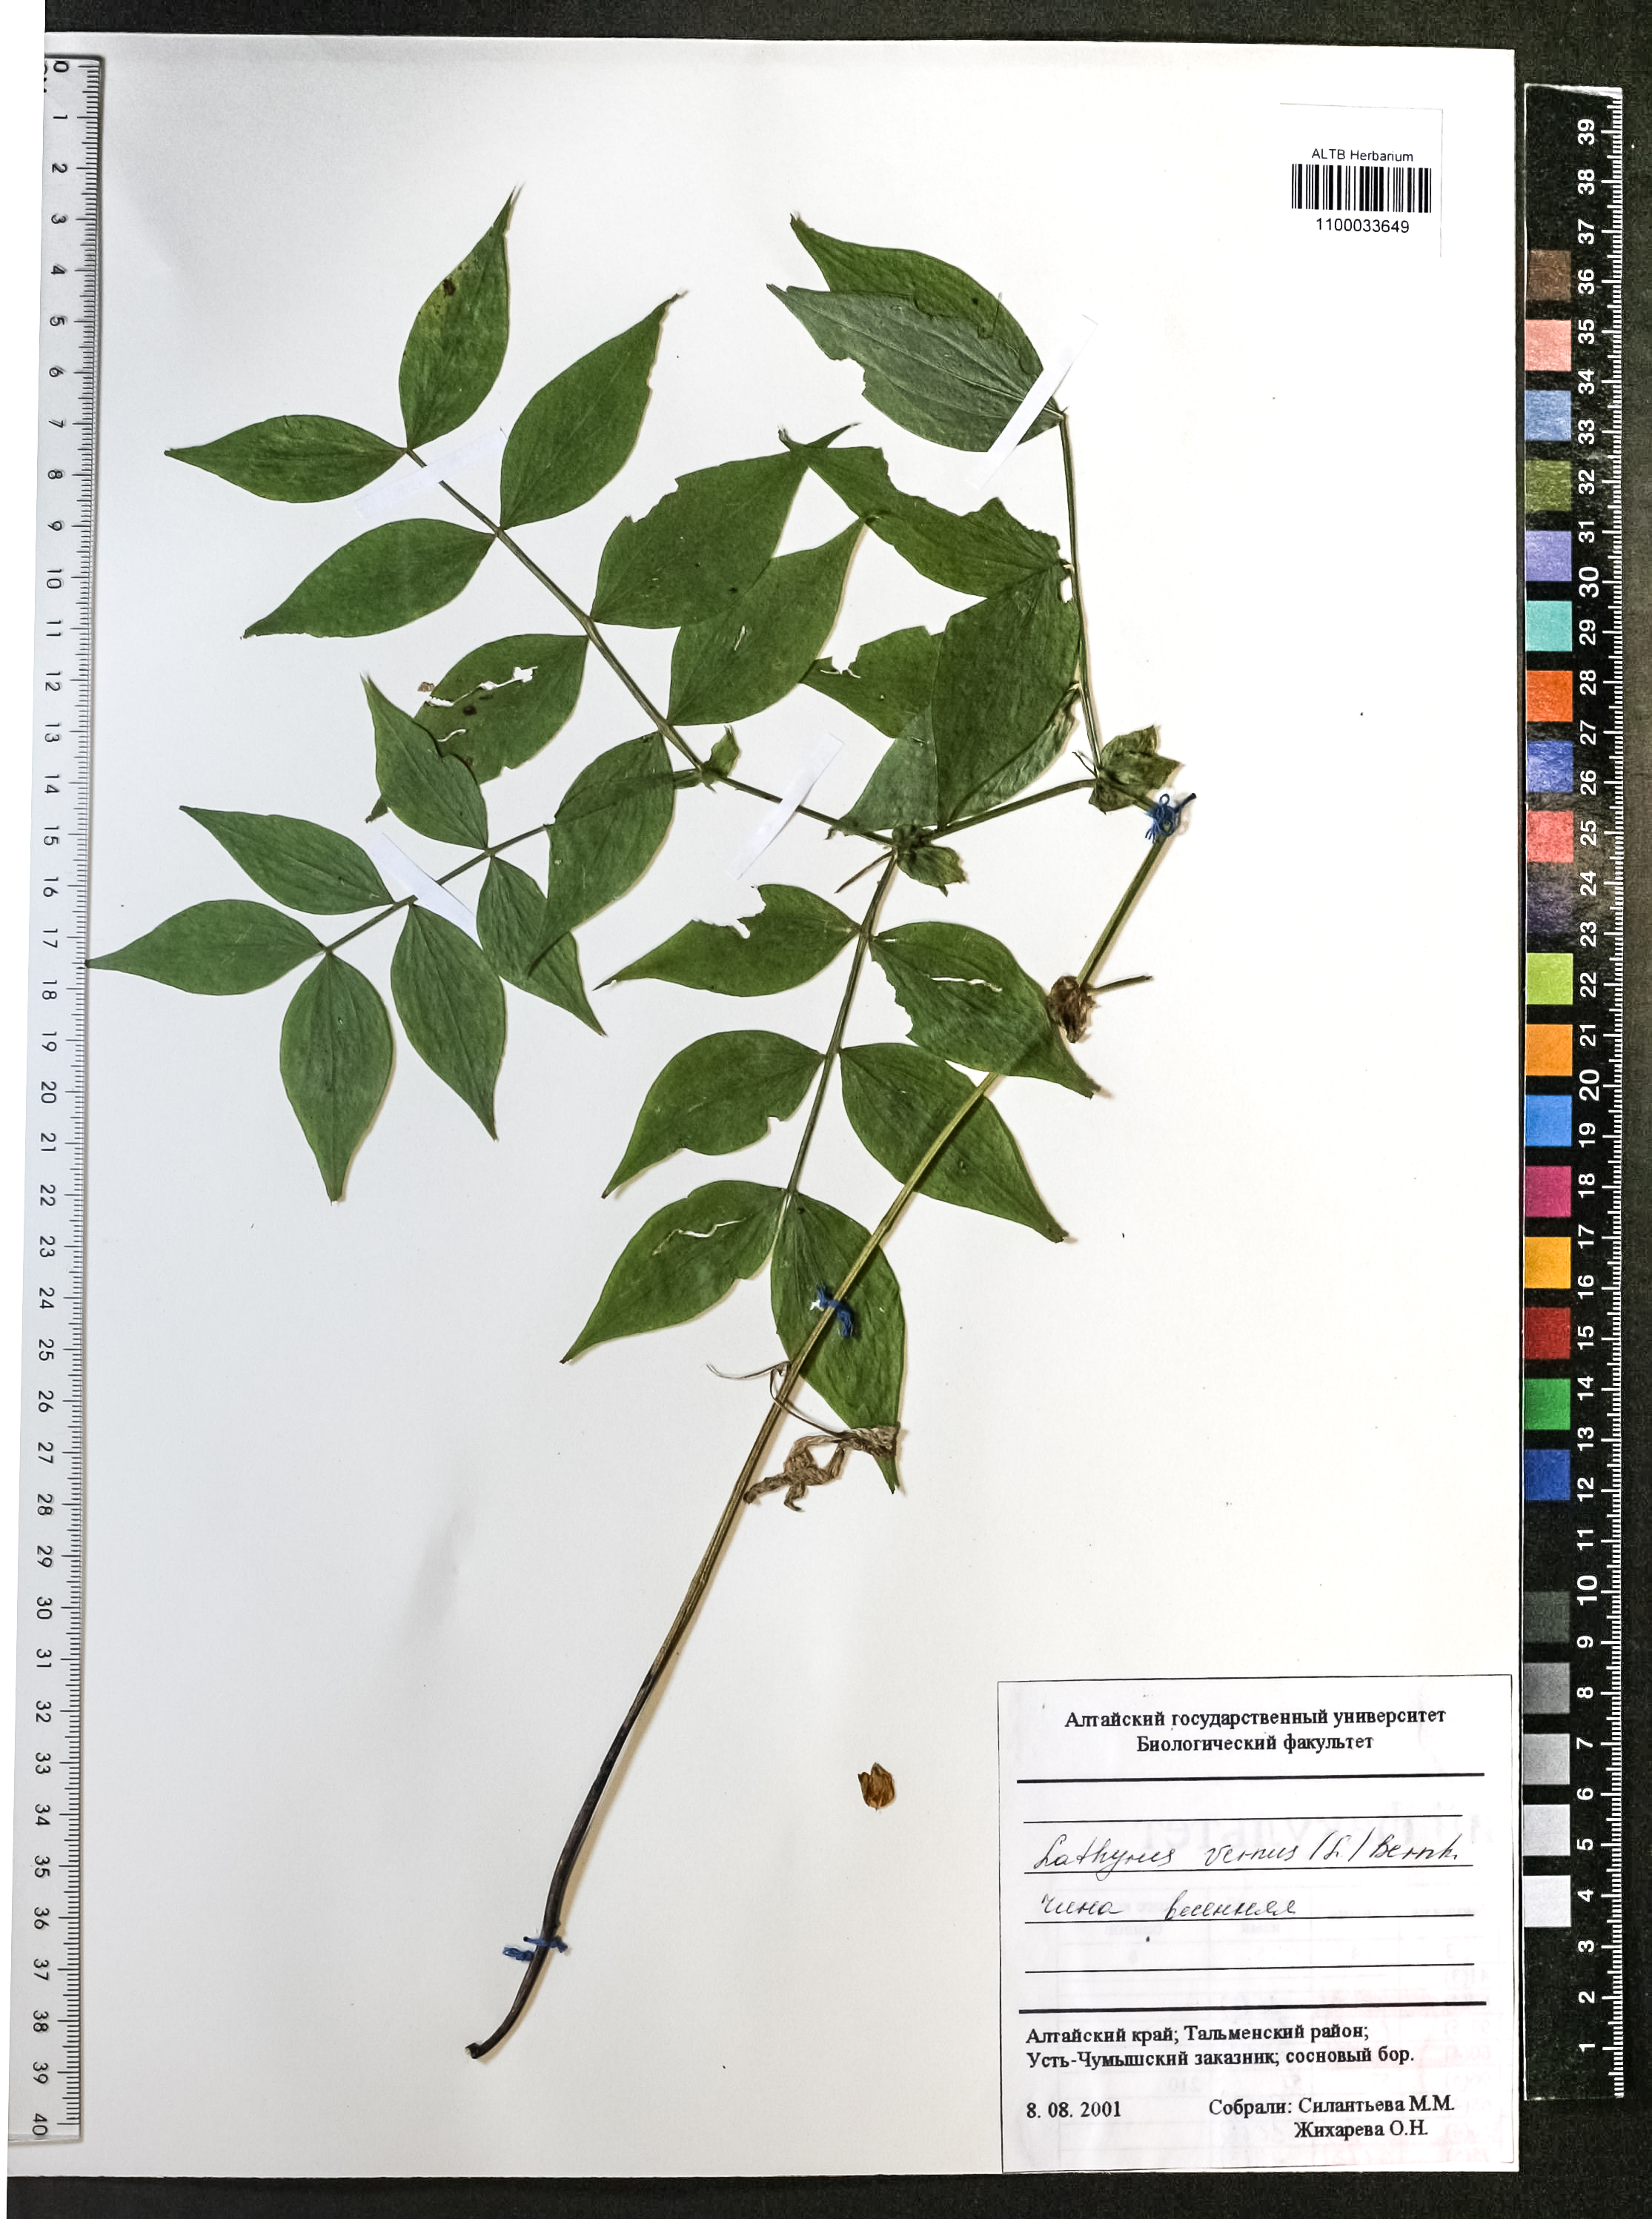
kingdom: Plantae
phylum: Tracheophyta
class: Magnoliopsida
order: Fabales
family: Fabaceae
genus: Lathyrus
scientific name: Lathyrus vernus
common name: Spring pea
